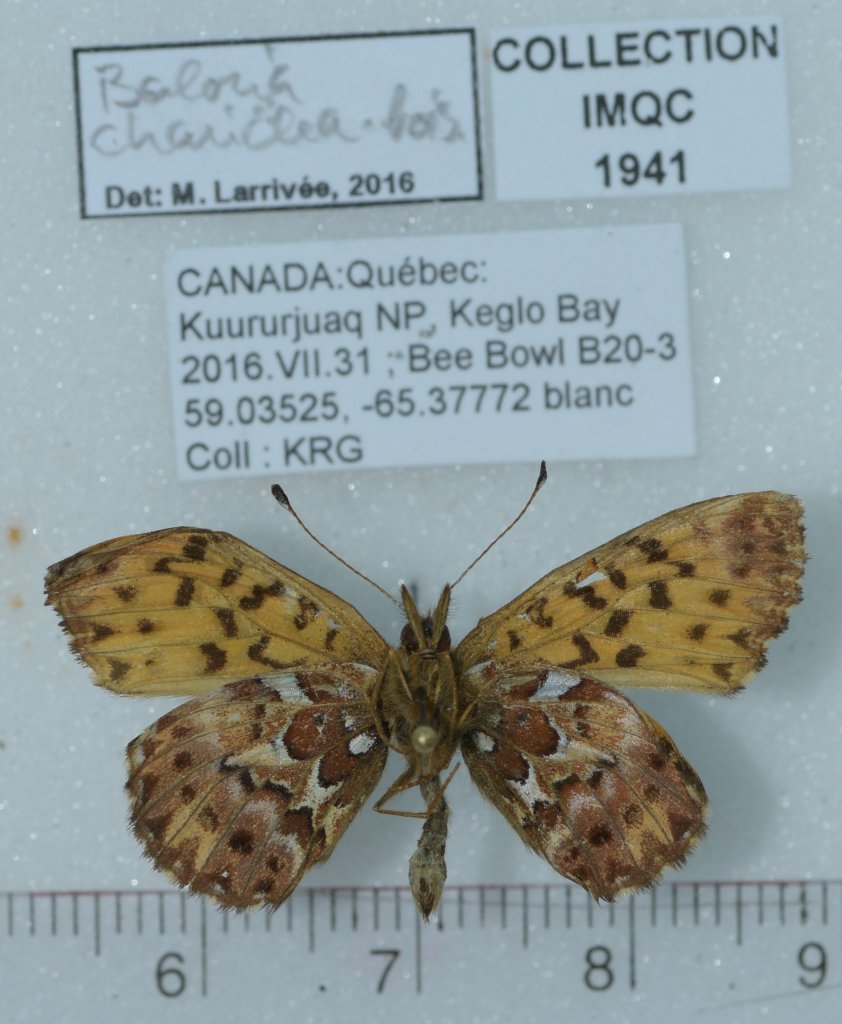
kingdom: Animalia
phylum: Arthropoda
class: Insecta
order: Lepidoptera
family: Nymphalidae
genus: Boloria
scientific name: Boloria chariclea
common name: Arctic Fritillary
